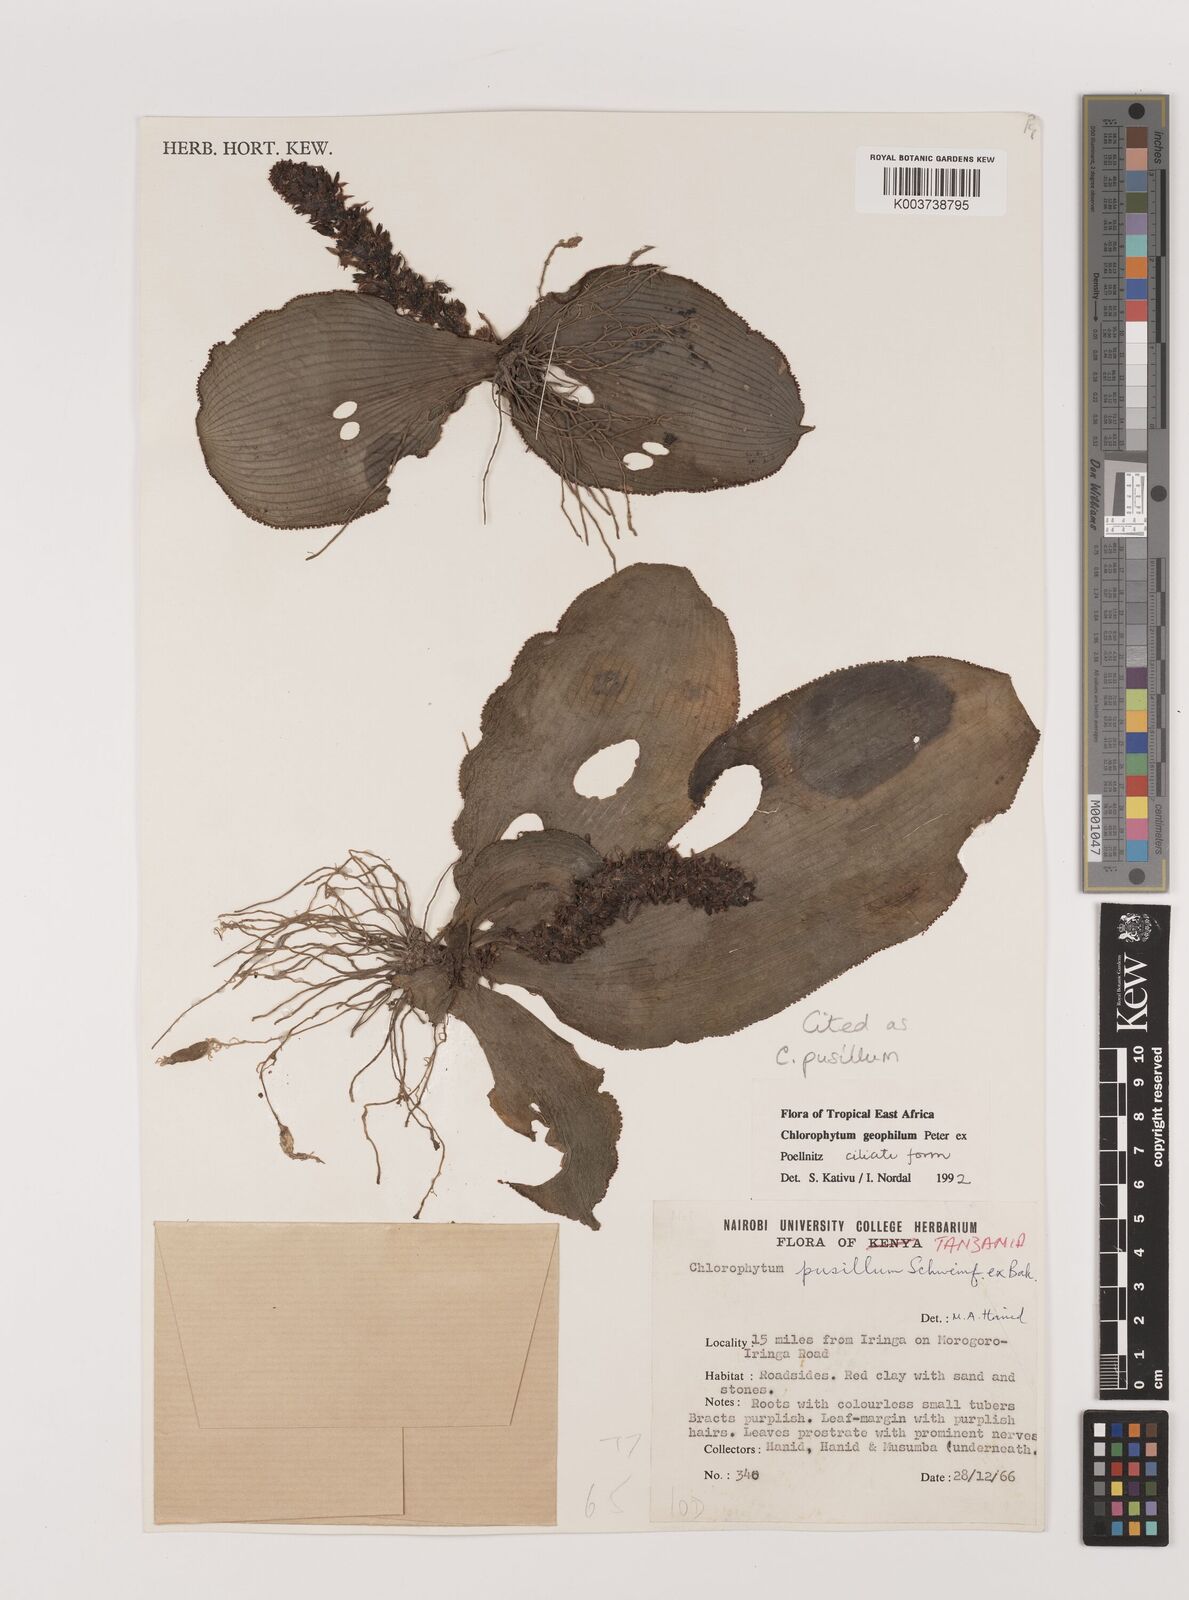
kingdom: Plantae
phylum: Tracheophyta
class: Liliopsida
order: Asparagales
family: Asparagaceae
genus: Chlorophytum
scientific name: Chlorophytum pusillum
